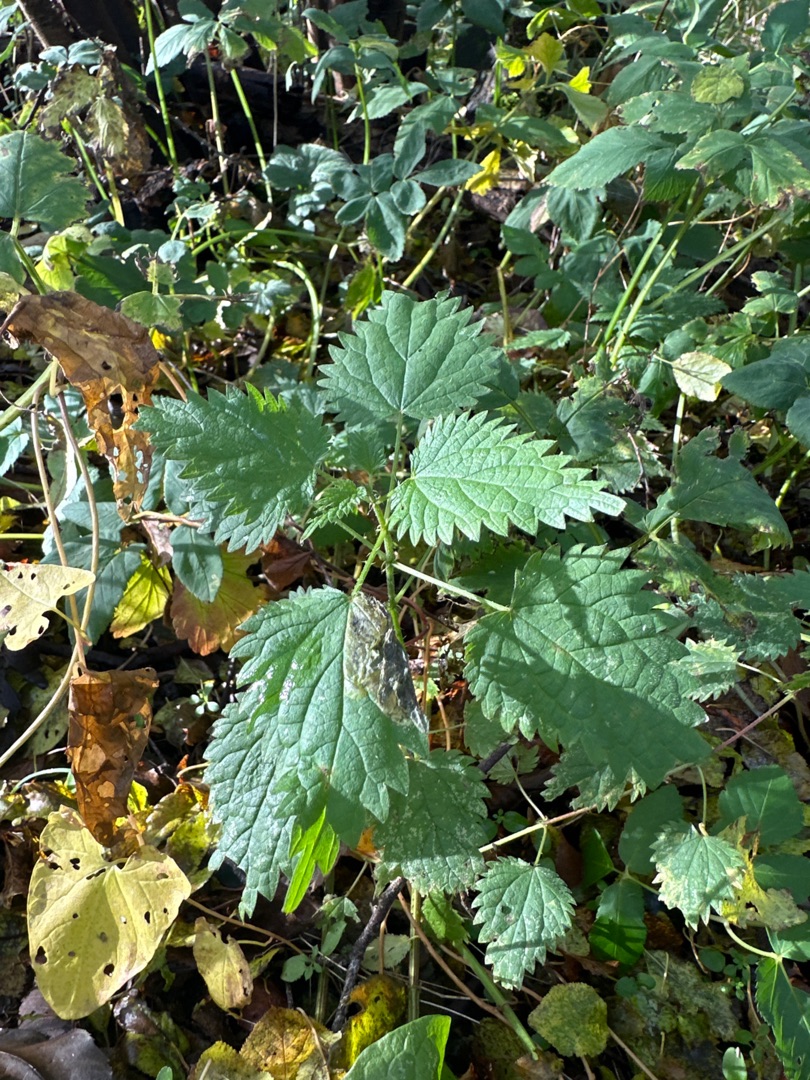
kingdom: Plantae
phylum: Tracheophyta
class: Magnoliopsida
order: Rosales
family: Urticaceae
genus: Urtica
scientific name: Urtica dioica
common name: Stor nælde
